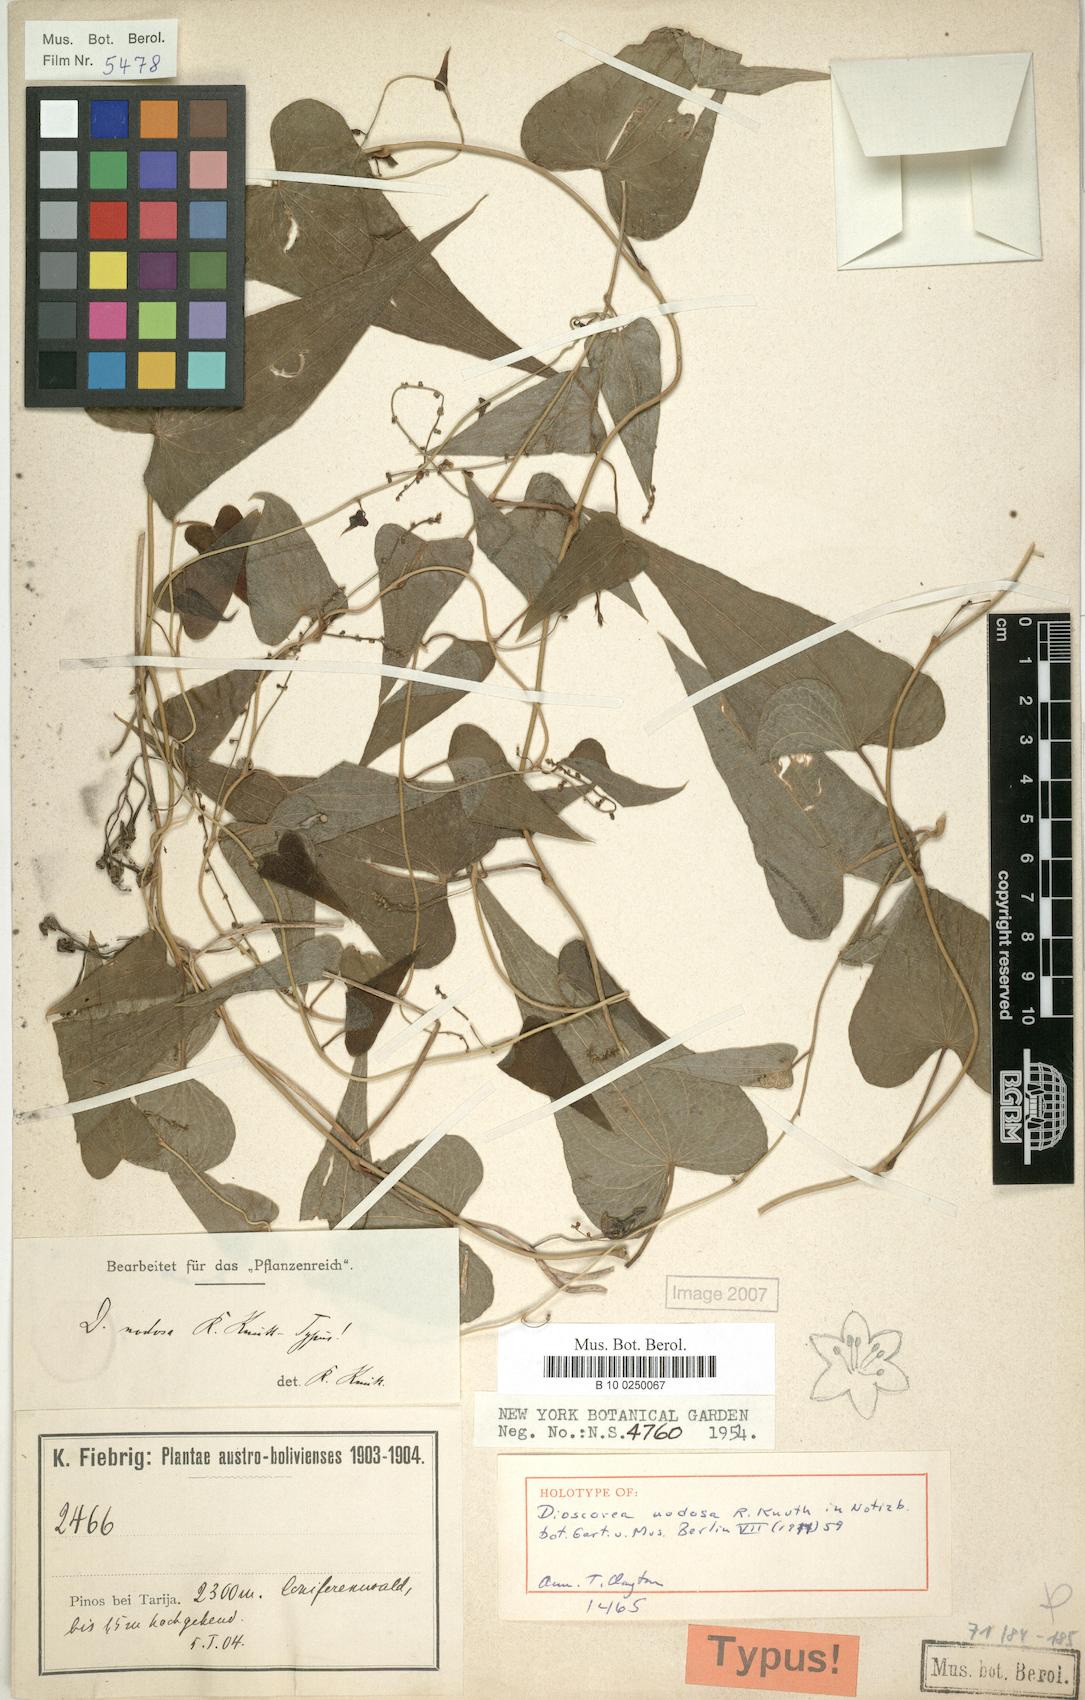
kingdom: Plantae
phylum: Tracheophyta
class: Liliopsida
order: Dioscoreales
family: Dioscoreaceae
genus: Dioscorea
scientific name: Dioscorea glomerulata
